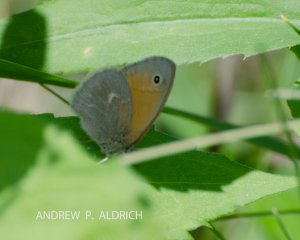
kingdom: Animalia
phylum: Arthropoda
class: Insecta
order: Lepidoptera
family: Nymphalidae
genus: Coenonympha
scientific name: Coenonympha tullia
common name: Large Heath
